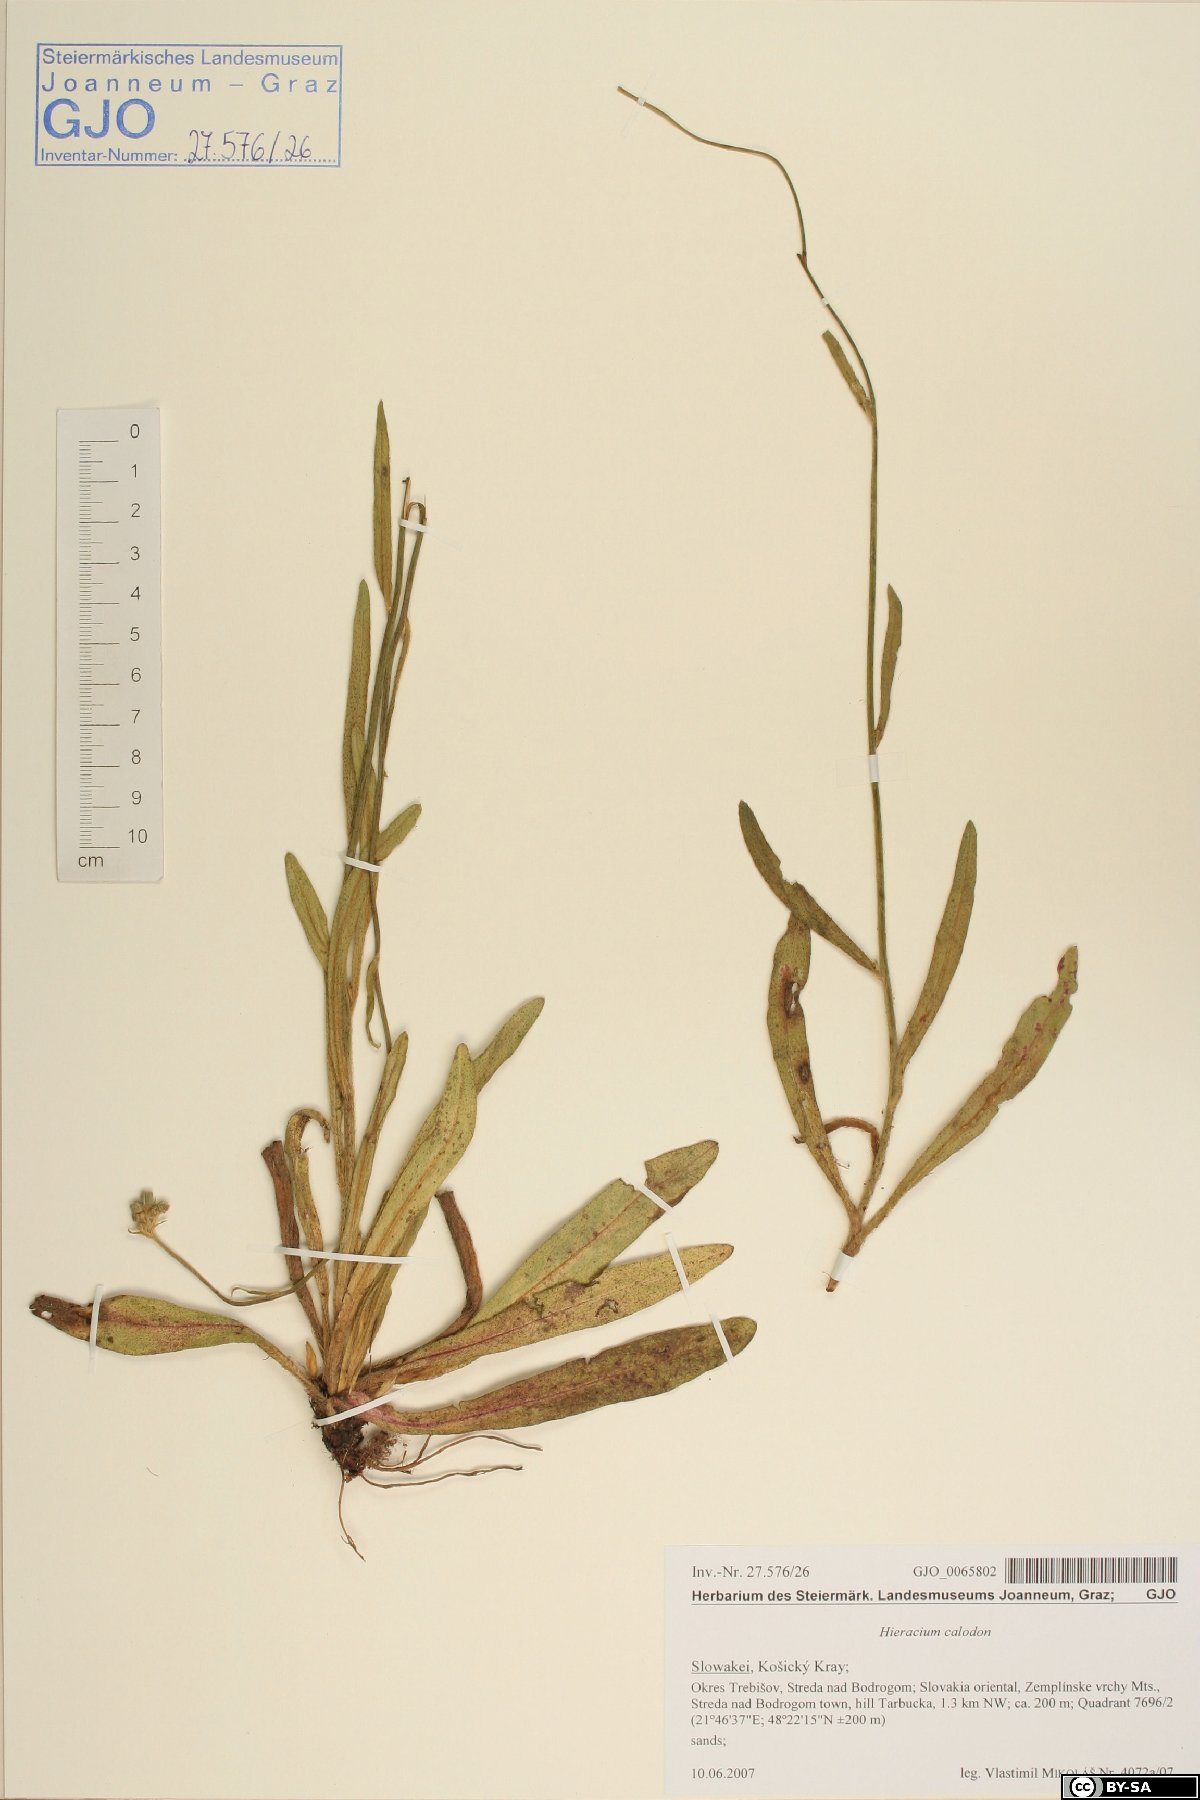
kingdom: Plantae
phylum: Tracheophyta
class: Magnoliopsida
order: Asterales
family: Asteraceae
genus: Pilosella
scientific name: Pilosella calodon
